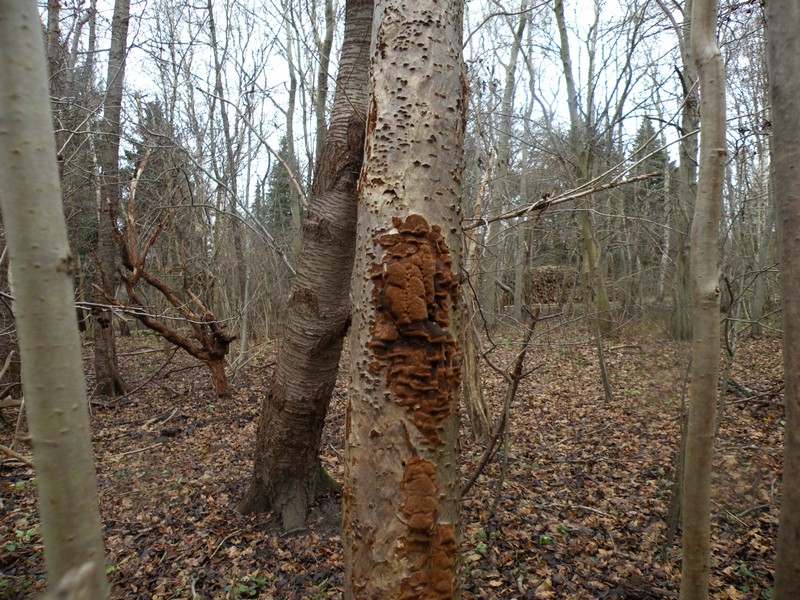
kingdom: Fungi
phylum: Basidiomycota
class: Agaricomycetes
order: Hymenochaetales
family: Hymenochaetaceae
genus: Fuscoporia
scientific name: Fuscoporia ferrea
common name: skorpe-ildporesvamp
